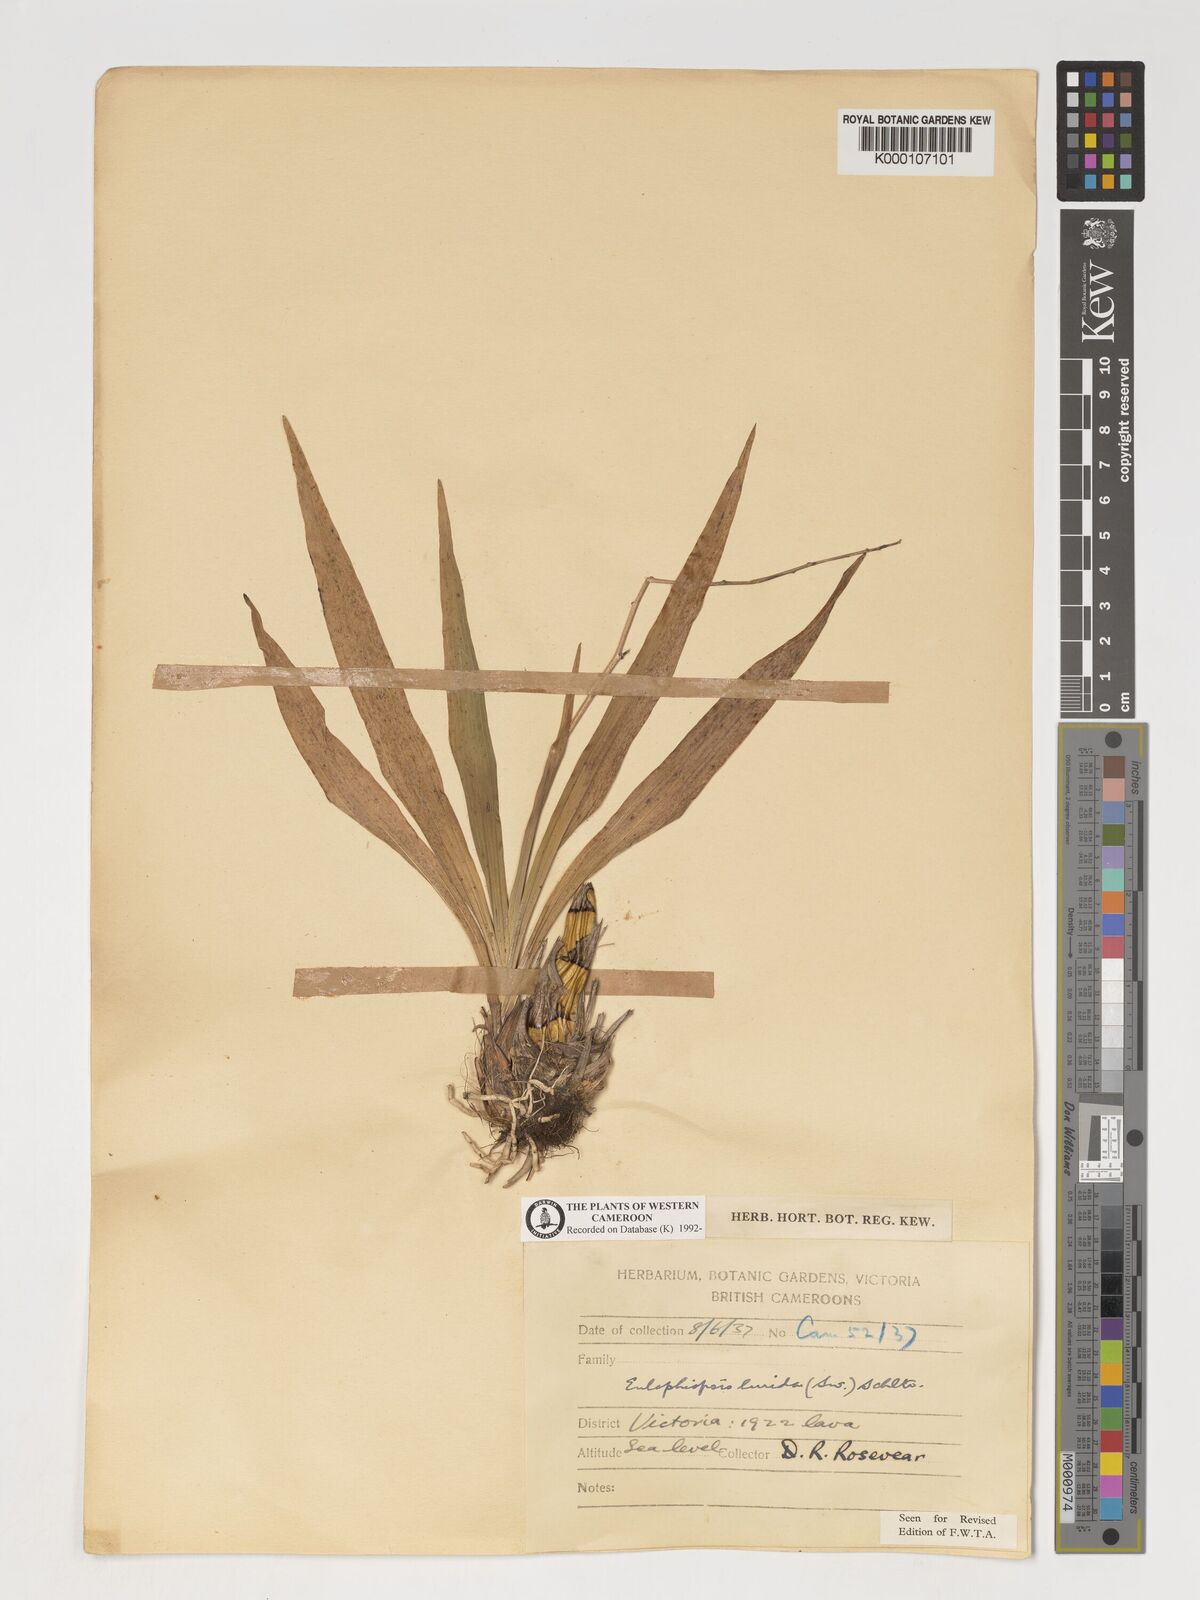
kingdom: Plantae
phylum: Tracheophyta
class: Liliopsida
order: Asparagales
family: Orchidaceae
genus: Graphorkis
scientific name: Graphorkis lurida
